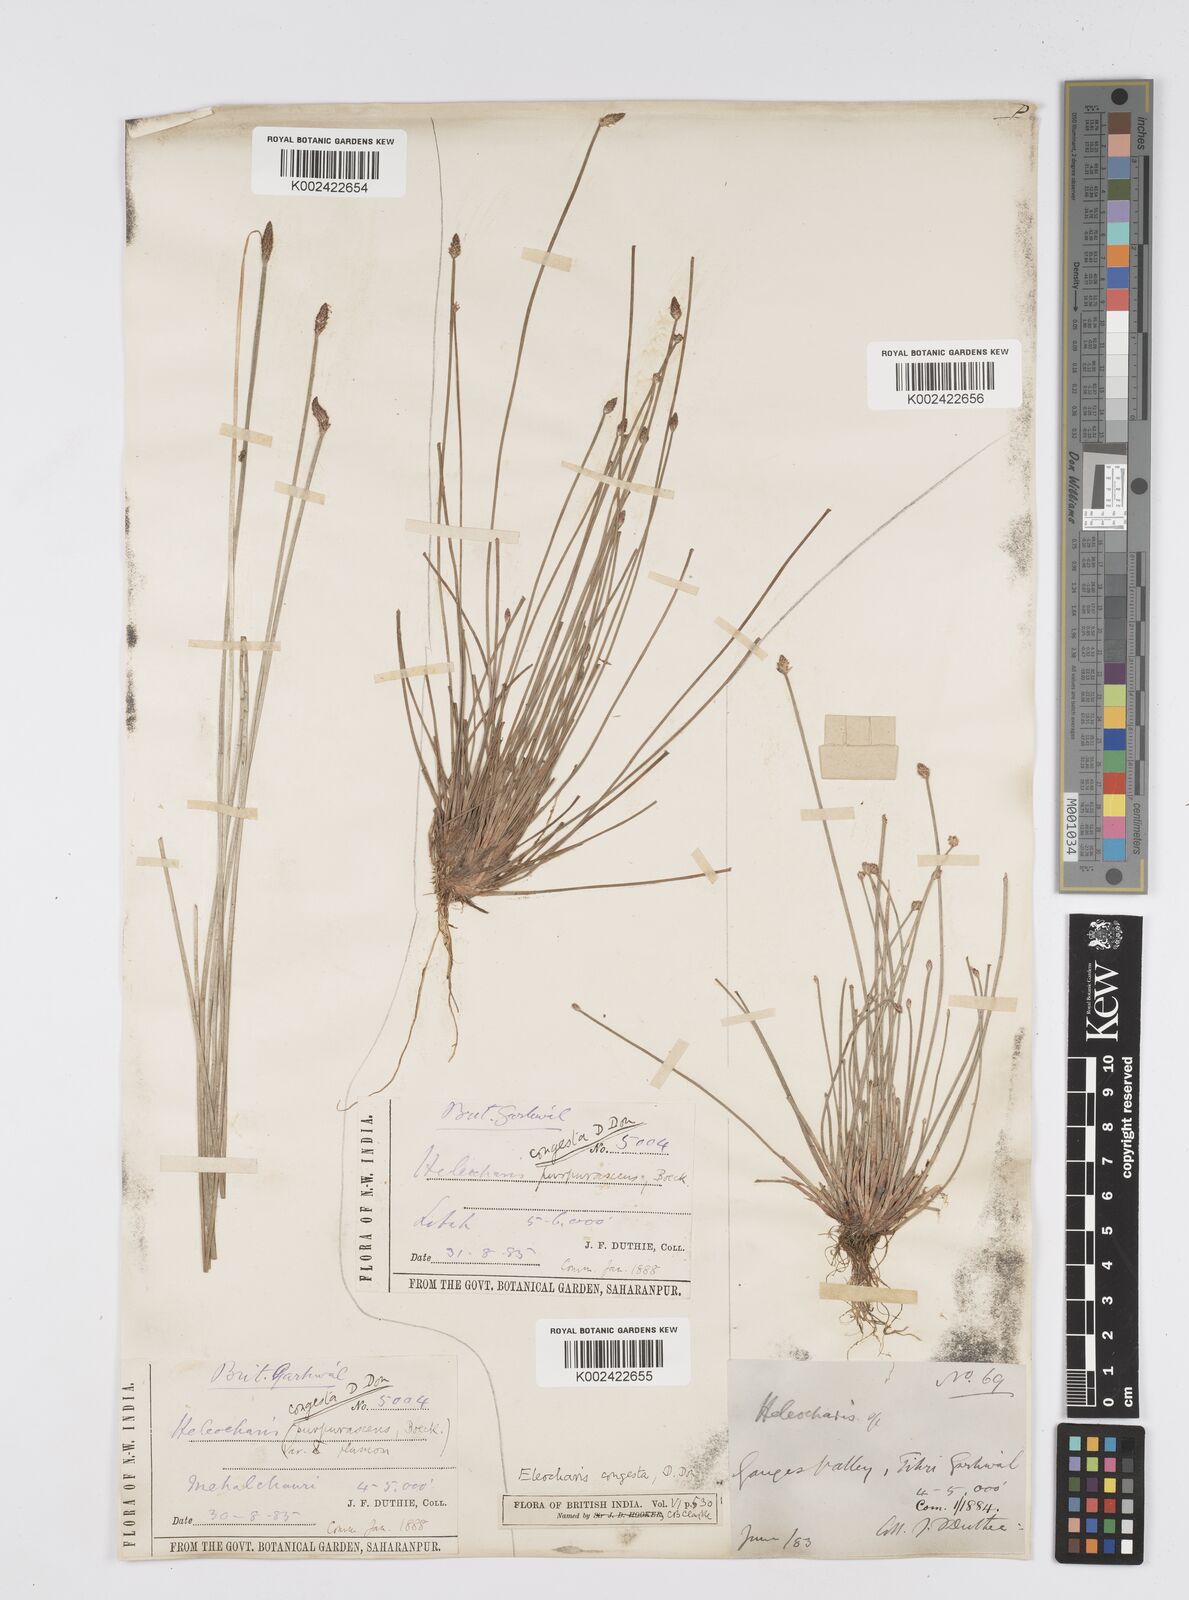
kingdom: Plantae
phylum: Tracheophyta
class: Liliopsida
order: Poales
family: Cyperaceae
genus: Eleocharis
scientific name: Eleocharis congesta
